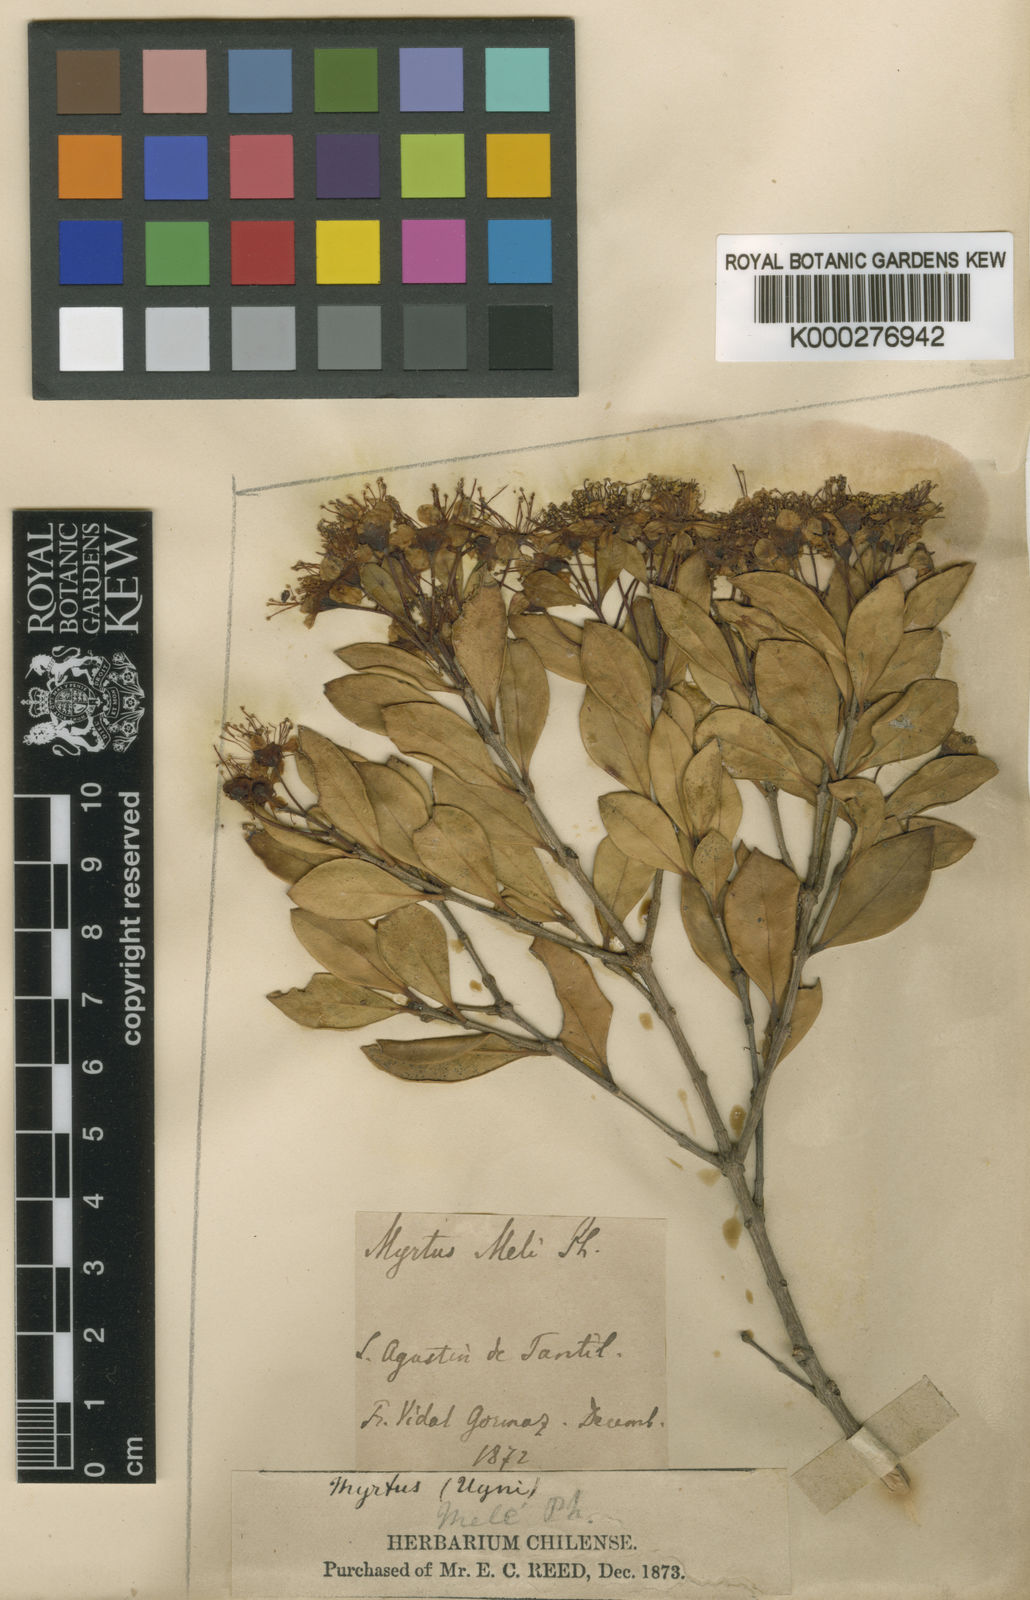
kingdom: Plantae
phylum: Tracheophyta
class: Magnoliopsida
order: Myrtales
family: Myrtaceae
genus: Amomyrtus
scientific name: Amomyrtus meli
